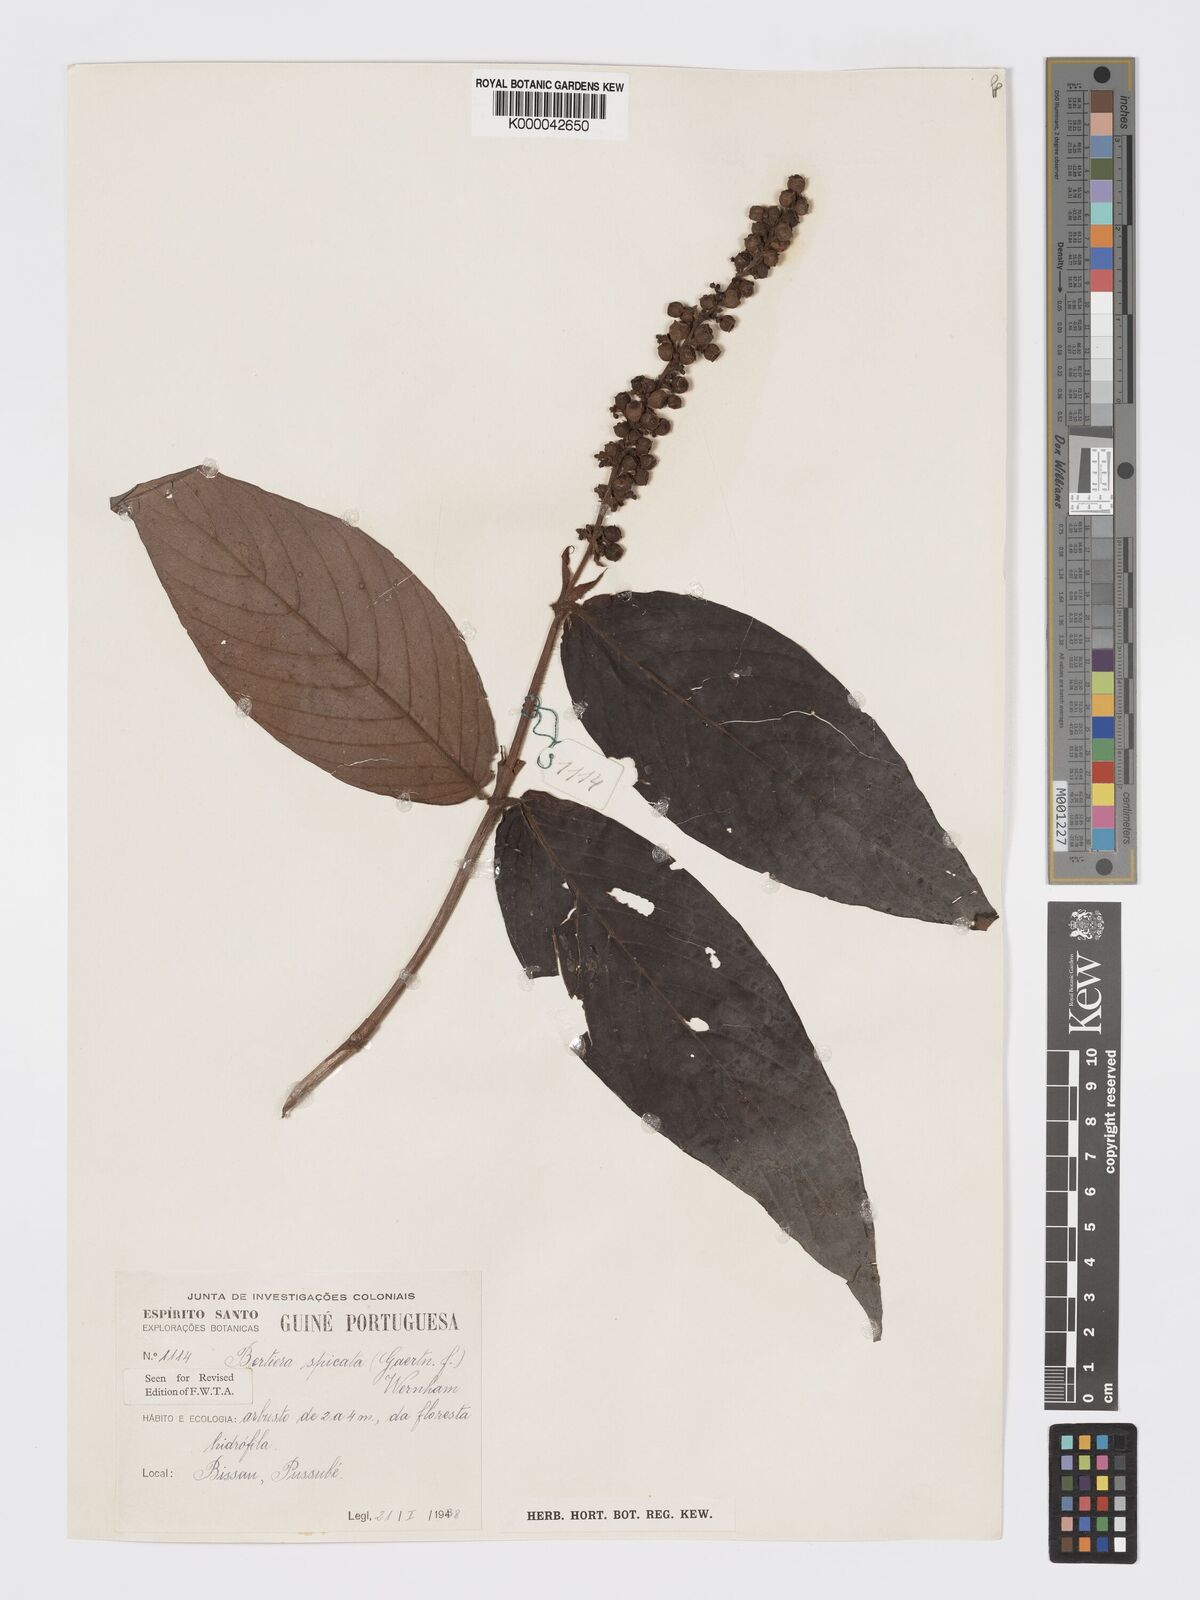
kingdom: Plantae
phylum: Tracheophyta
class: Magnoliopsida
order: Gentianales
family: Rubiaceae
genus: Bertiera
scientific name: Bertiera
